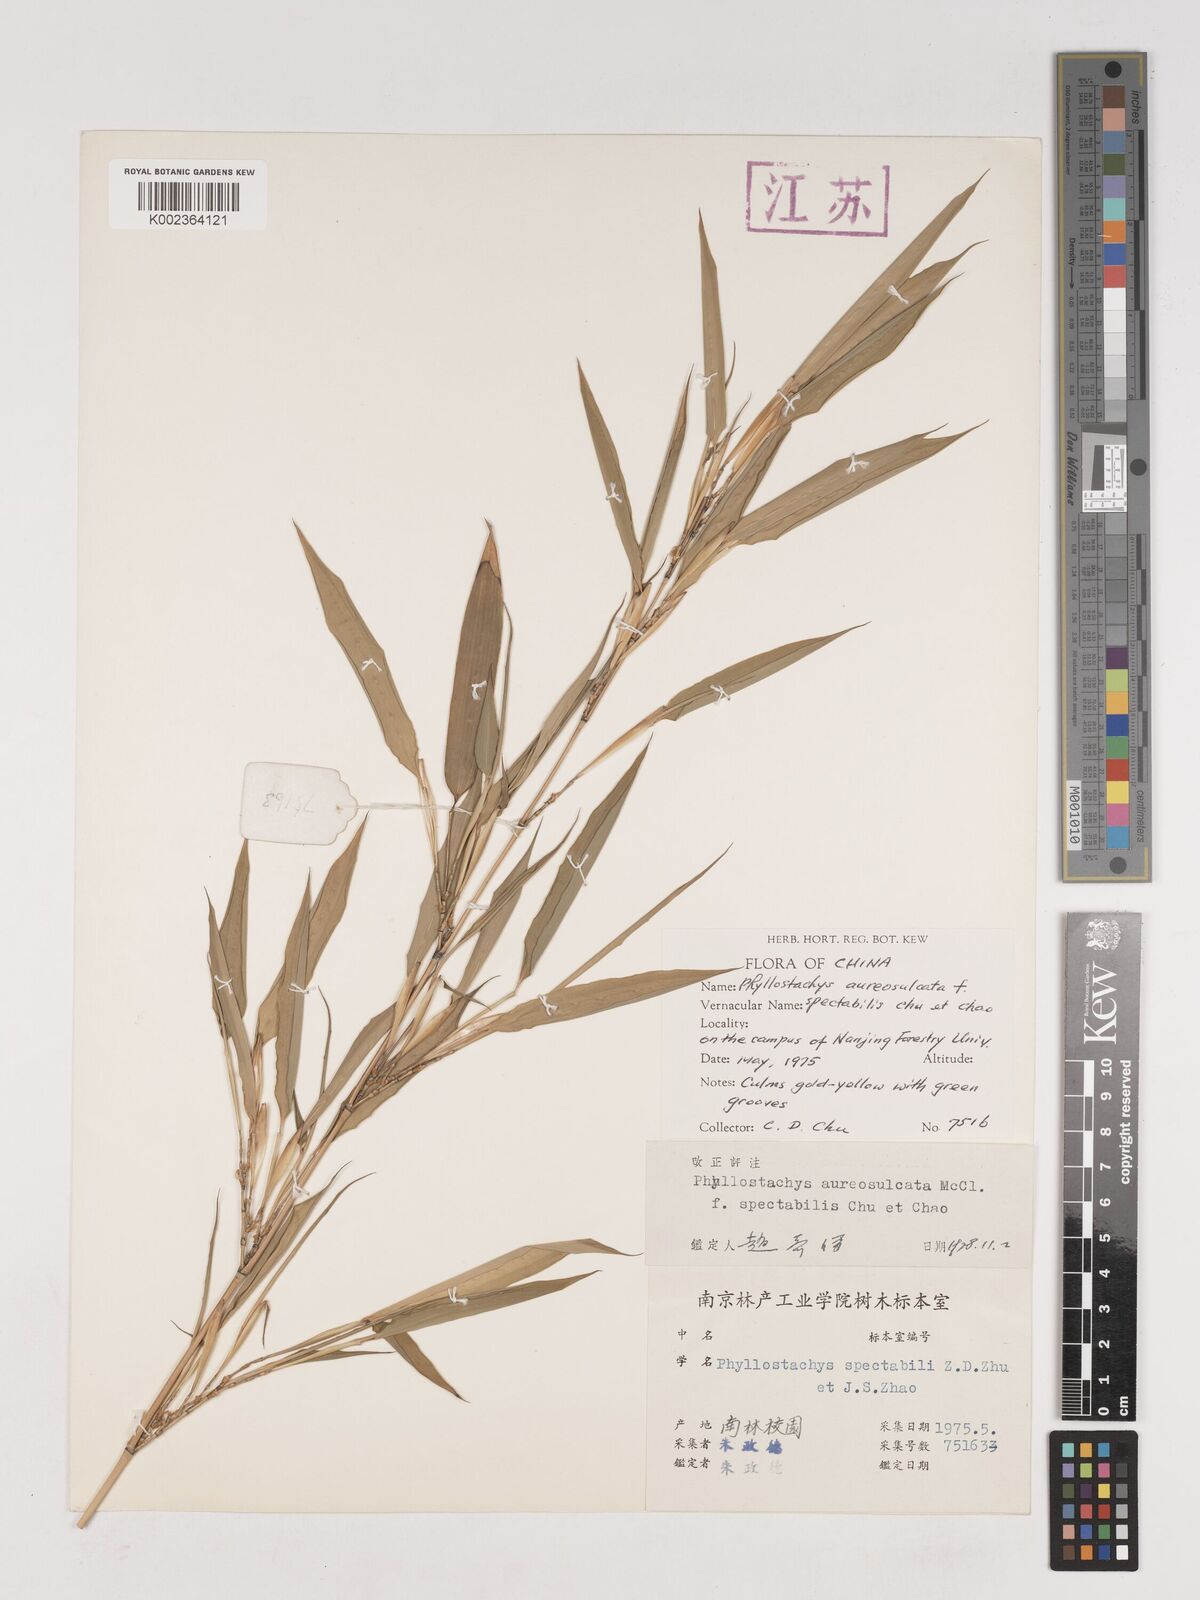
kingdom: Plantae
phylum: Tracheophyta
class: Liliopsida
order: Poales
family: Poaceae
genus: Phyllostachys
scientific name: Phyllostachys aureosulcata
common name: Yellow groove bamboo
